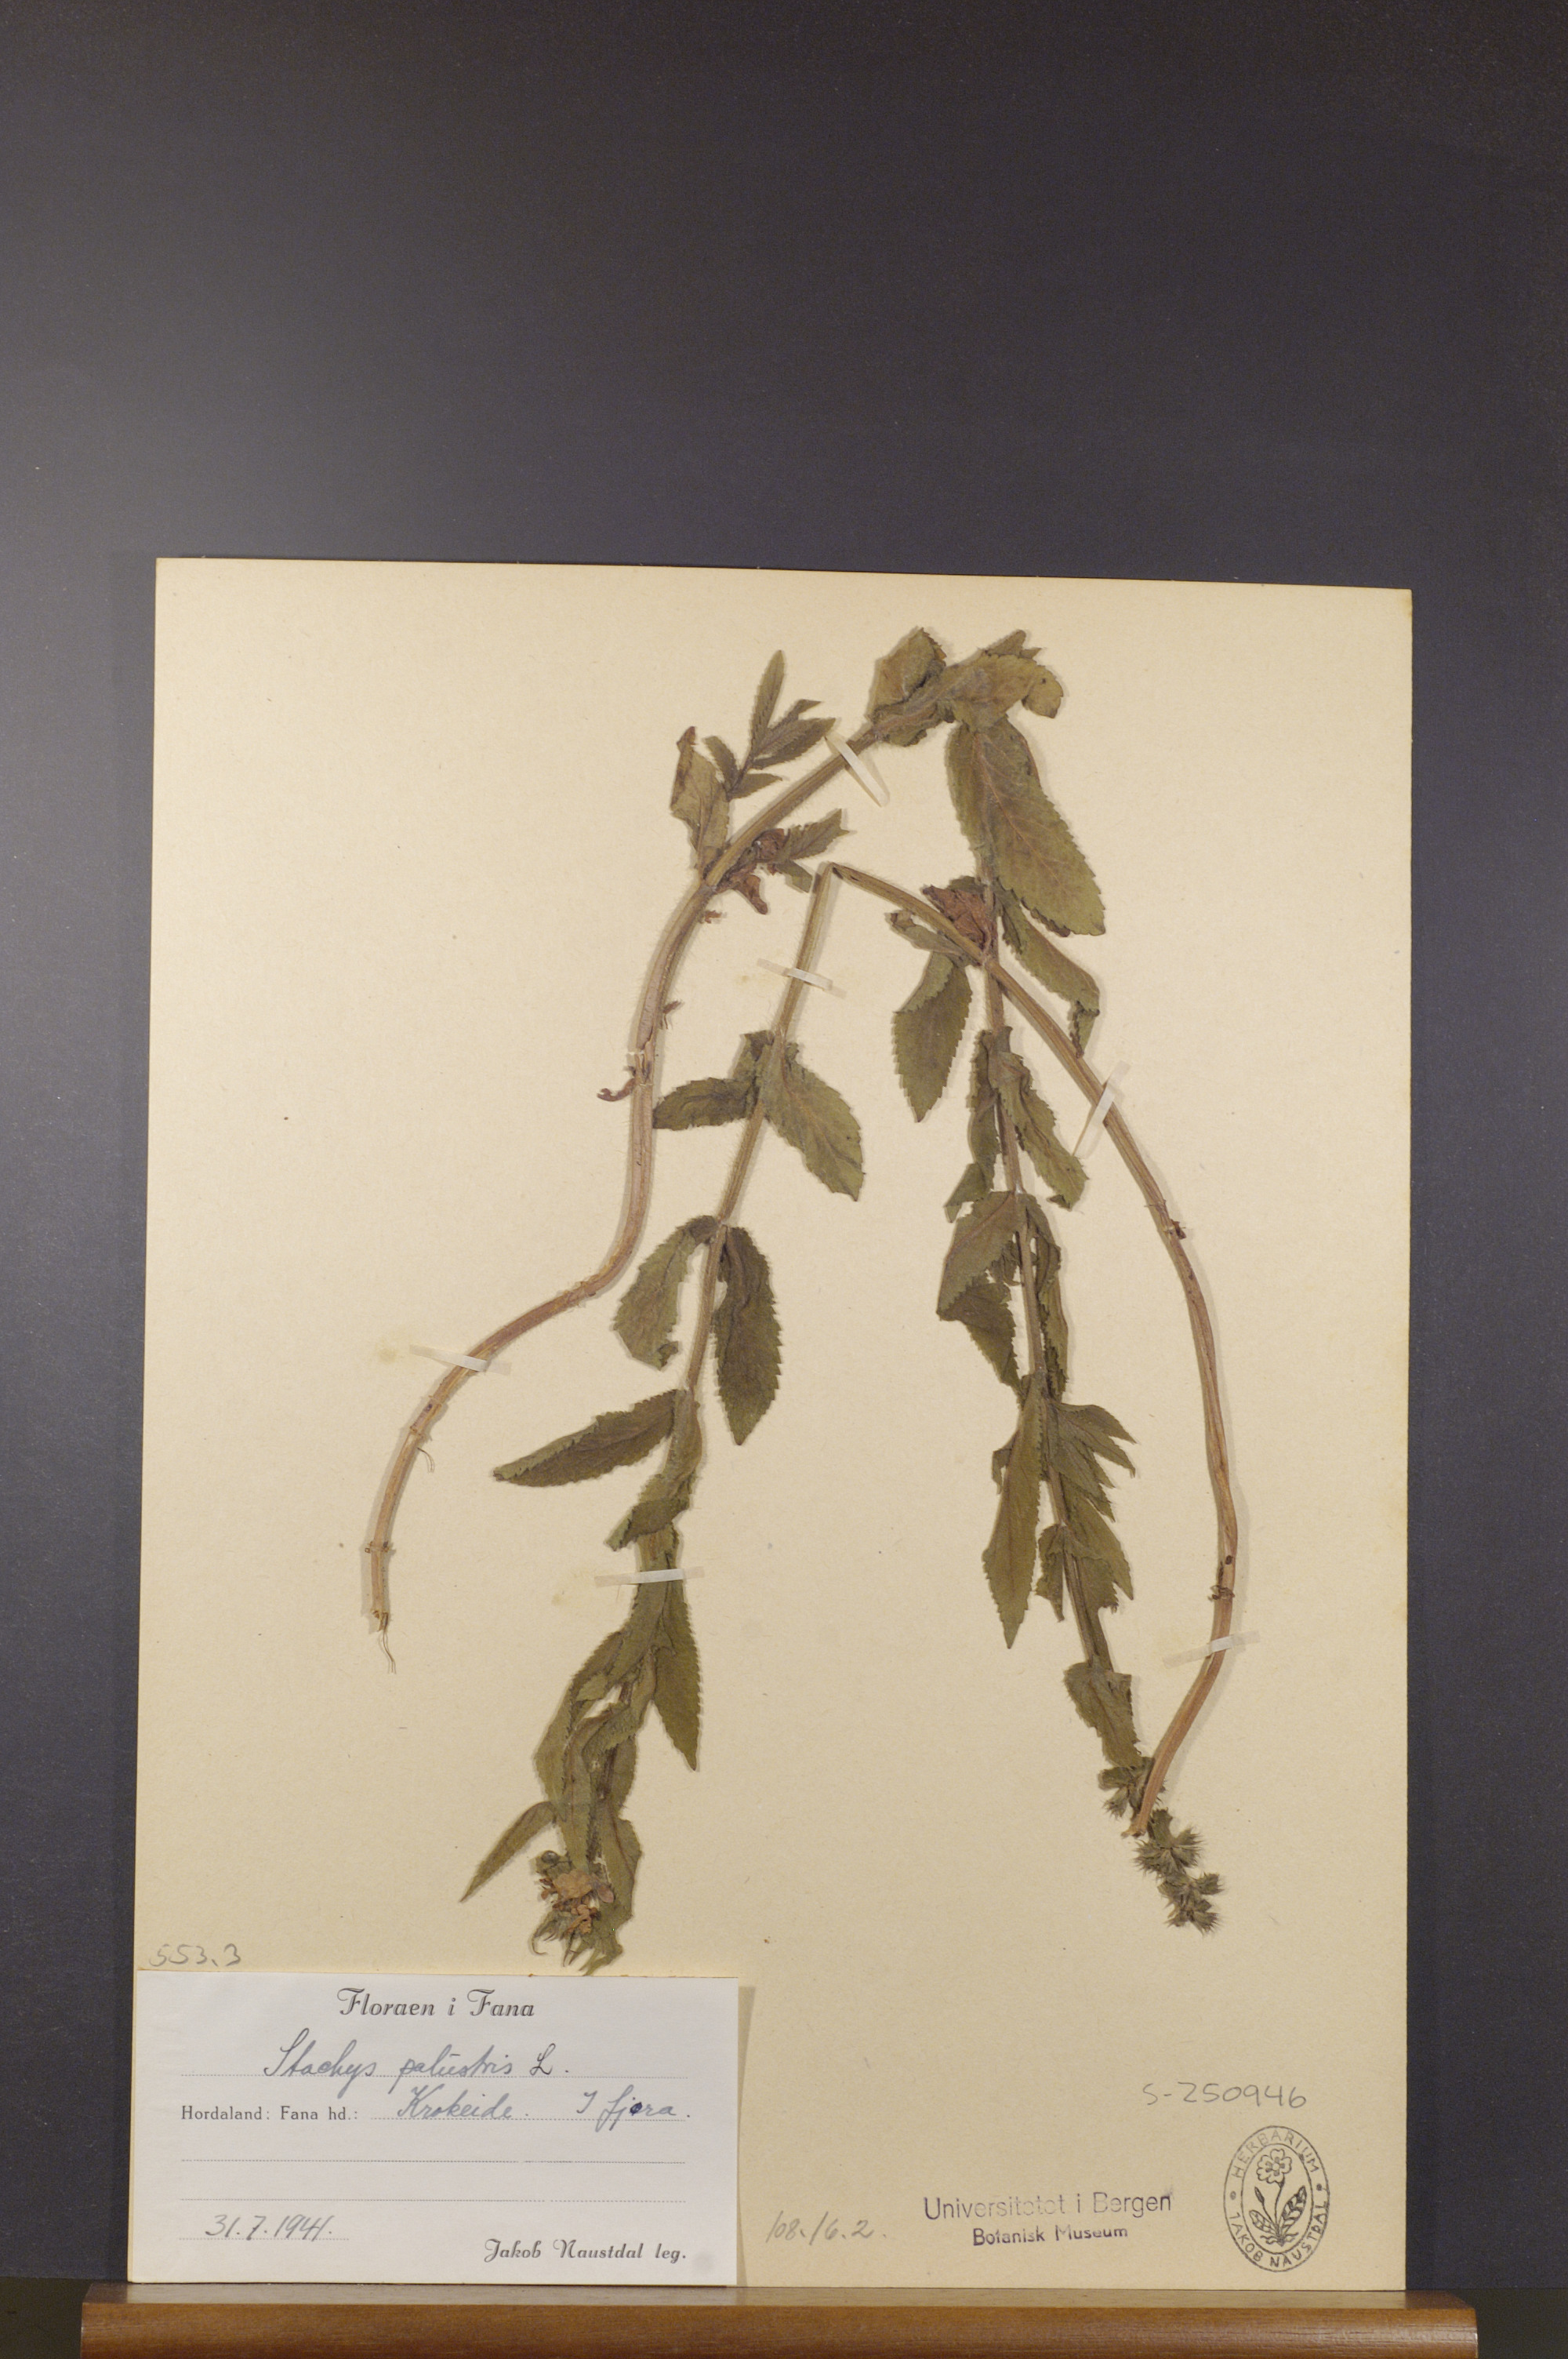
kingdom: Plantae
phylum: Tracheophyta
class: Magnoliopsida
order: Lamiales
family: Lamiaceae
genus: Stachys
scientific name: Stachys palustris
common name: Marsh woundwort
